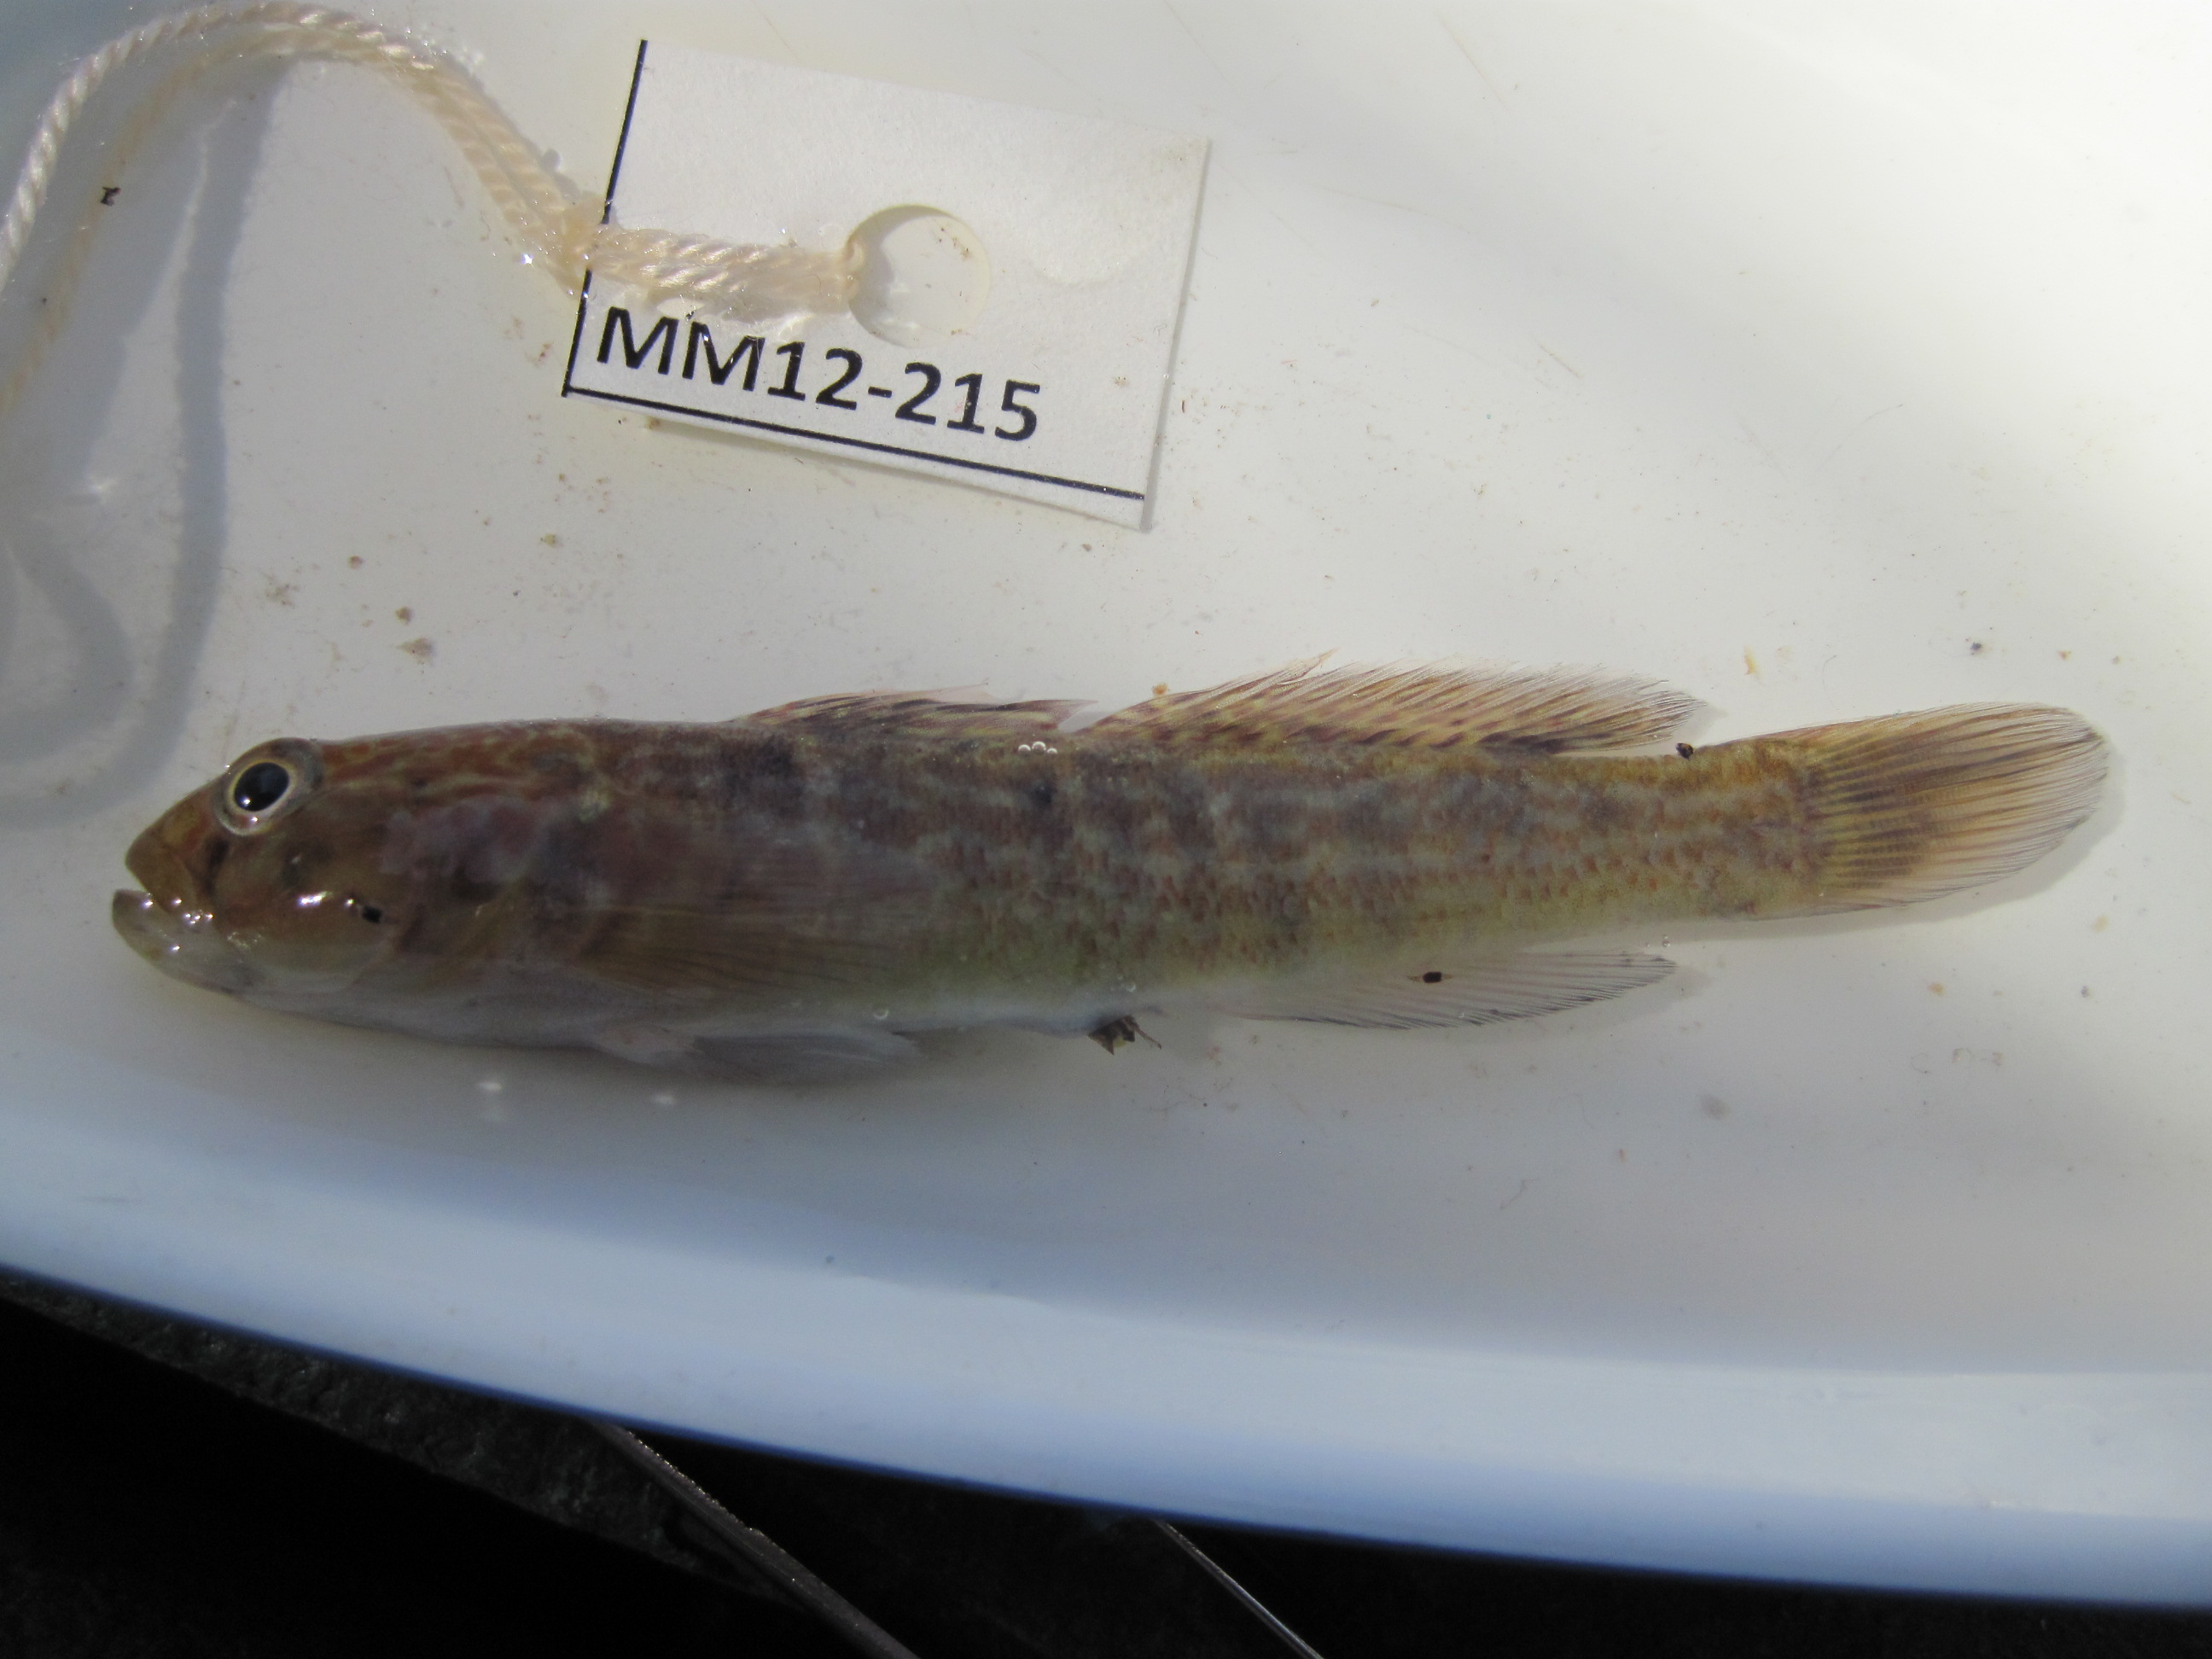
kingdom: Animalia
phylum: Chordata
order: Perciformes
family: Gobiidae
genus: Caffrogobius
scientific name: Caffrogobius
